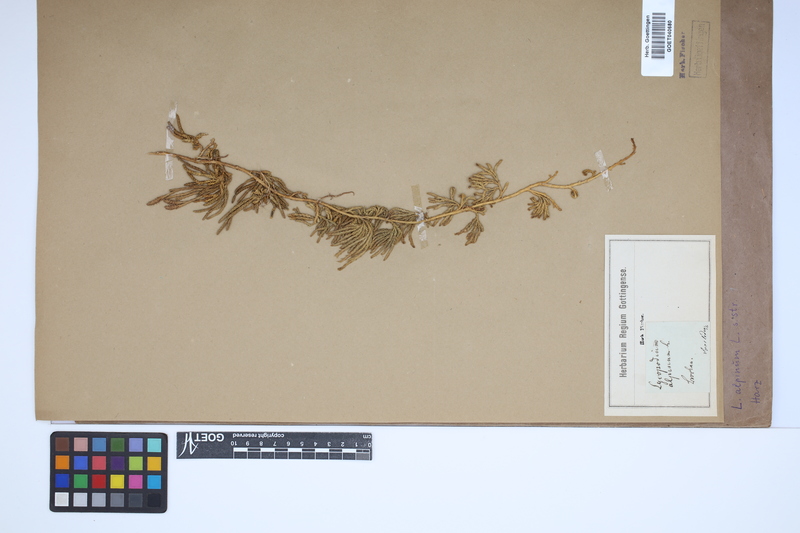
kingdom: Plantae
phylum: Tracheophyta
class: Lycopodiopsida
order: Lycopodiales
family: Lycopodiaceae
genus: Diphasiastrum
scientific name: Diphasiastrum alpinum
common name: Alpine clubmoss
